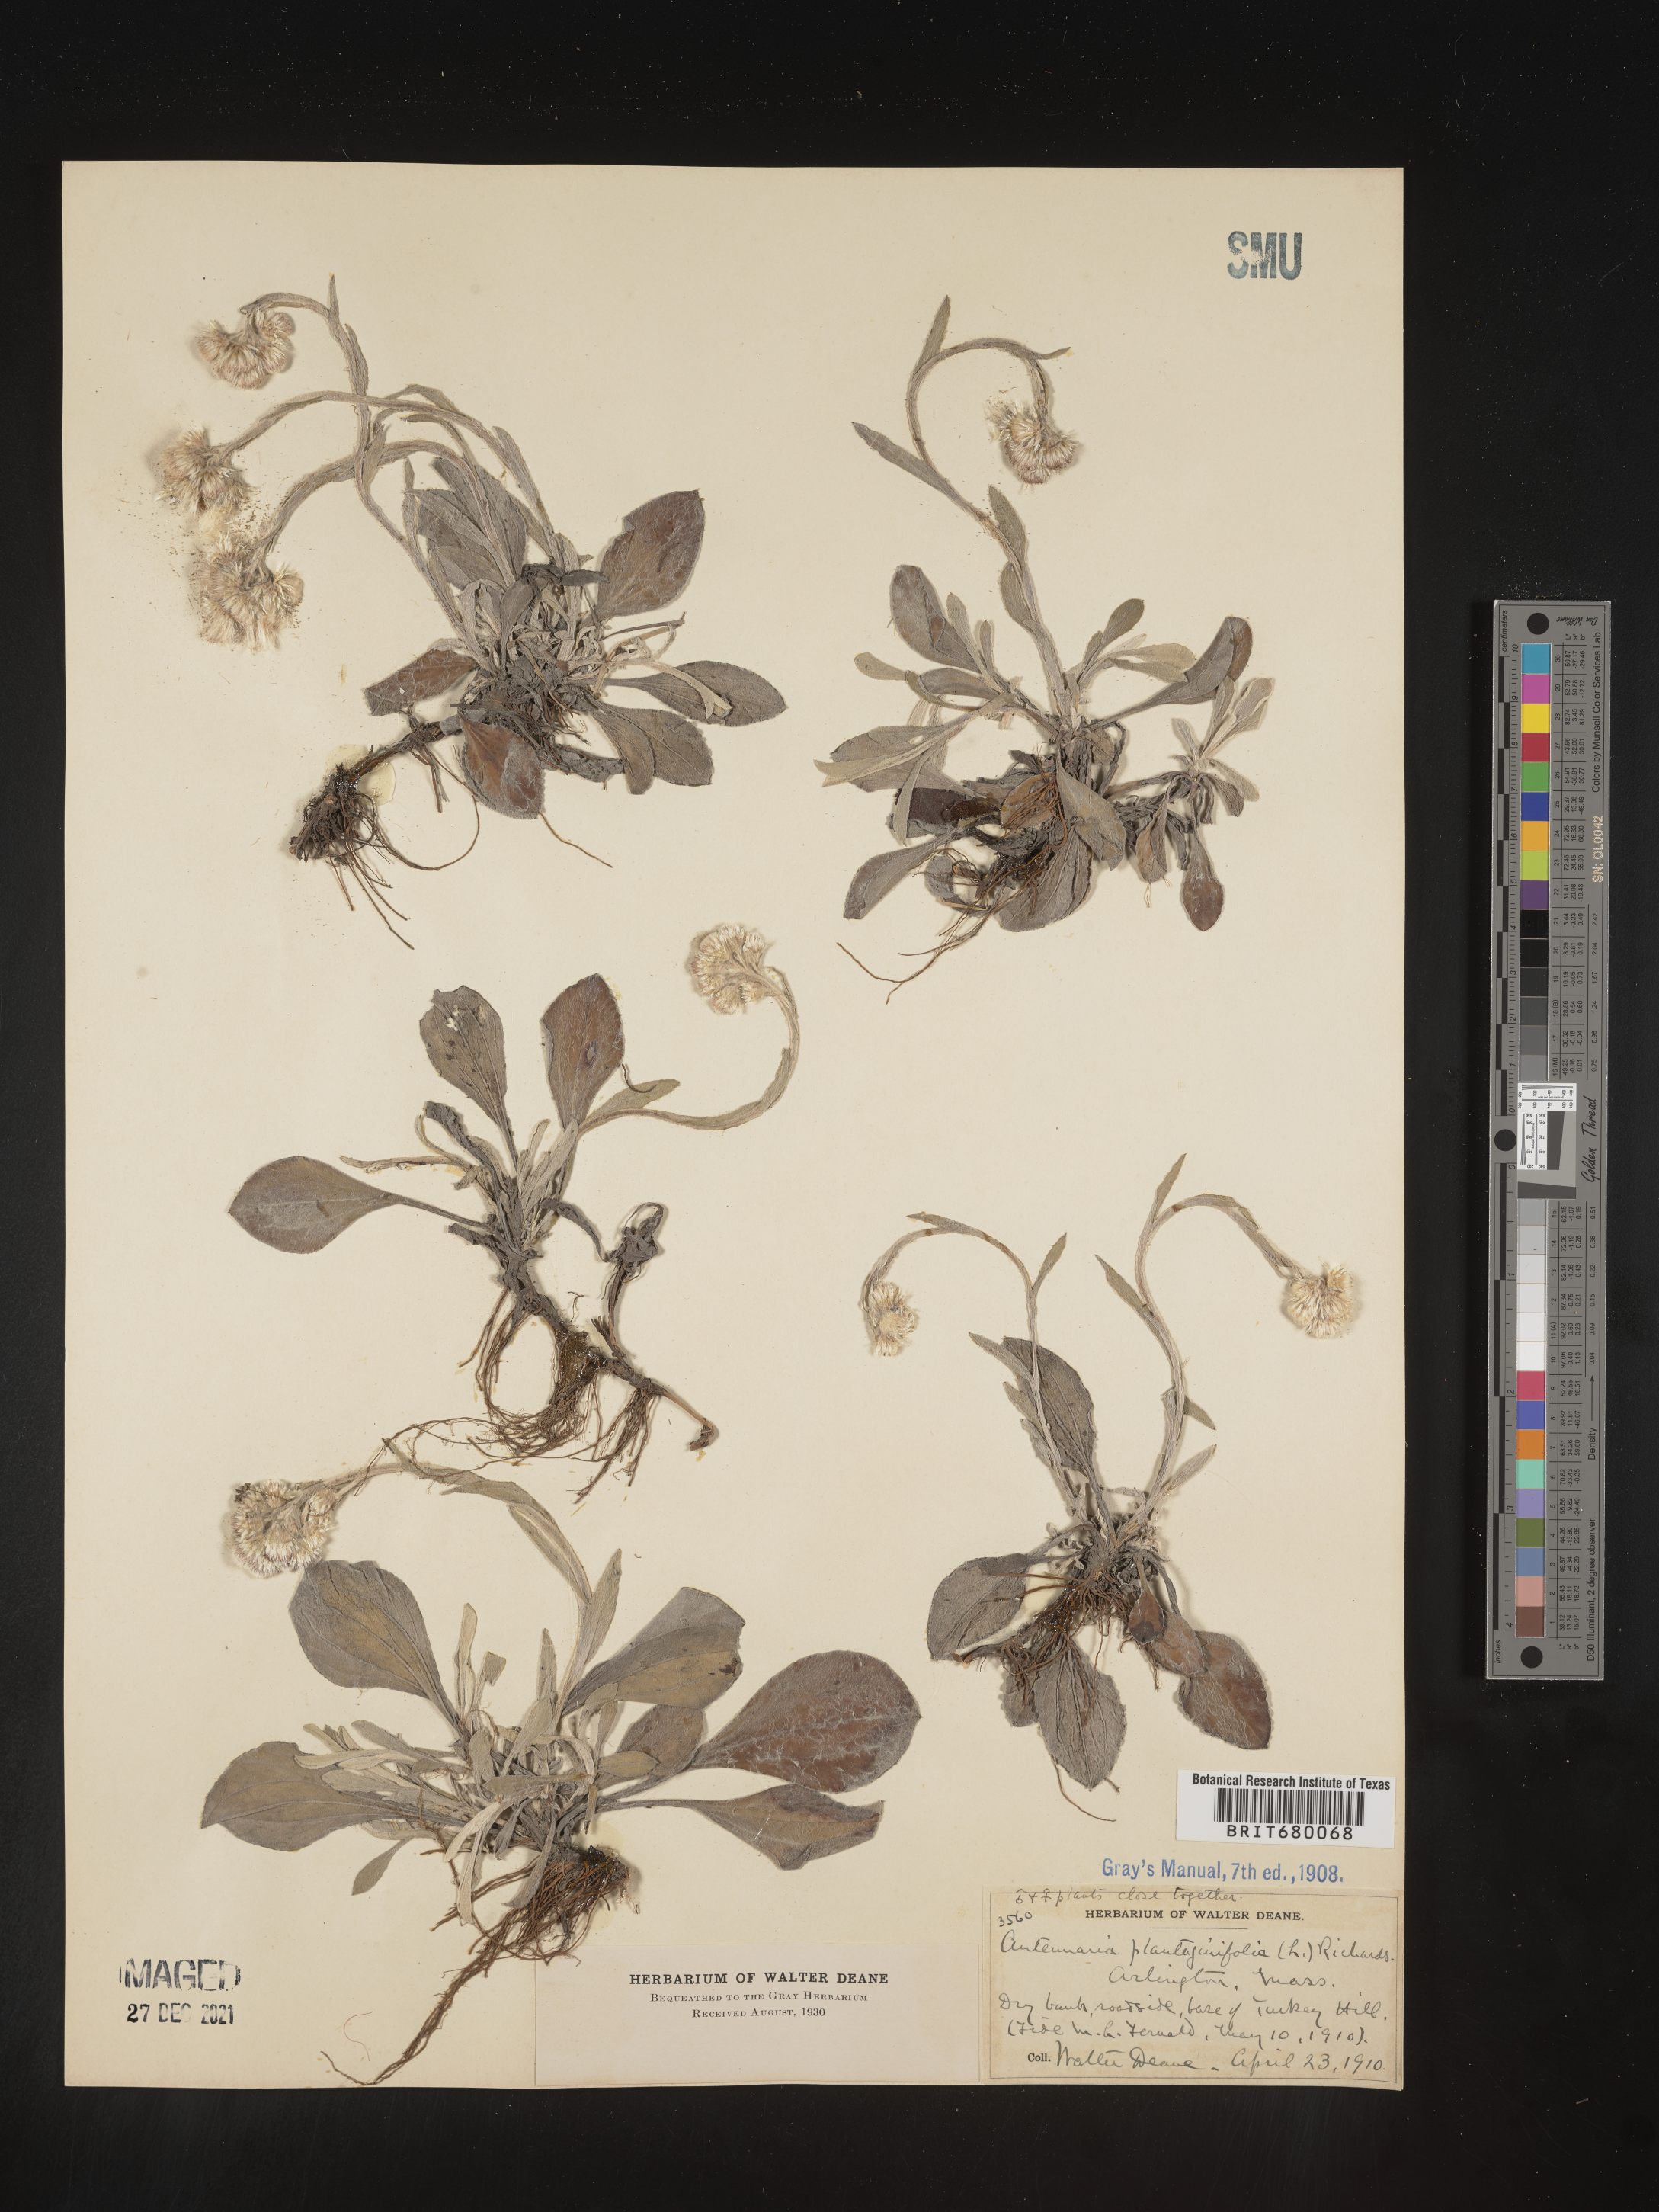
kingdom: Plantae
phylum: Tracheophyta
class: Magnoliopsida
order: Asterales
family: Asteraceae
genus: Antennaria
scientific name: Antennaria plantaginifolia
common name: Plantain-leaved pussytoes
